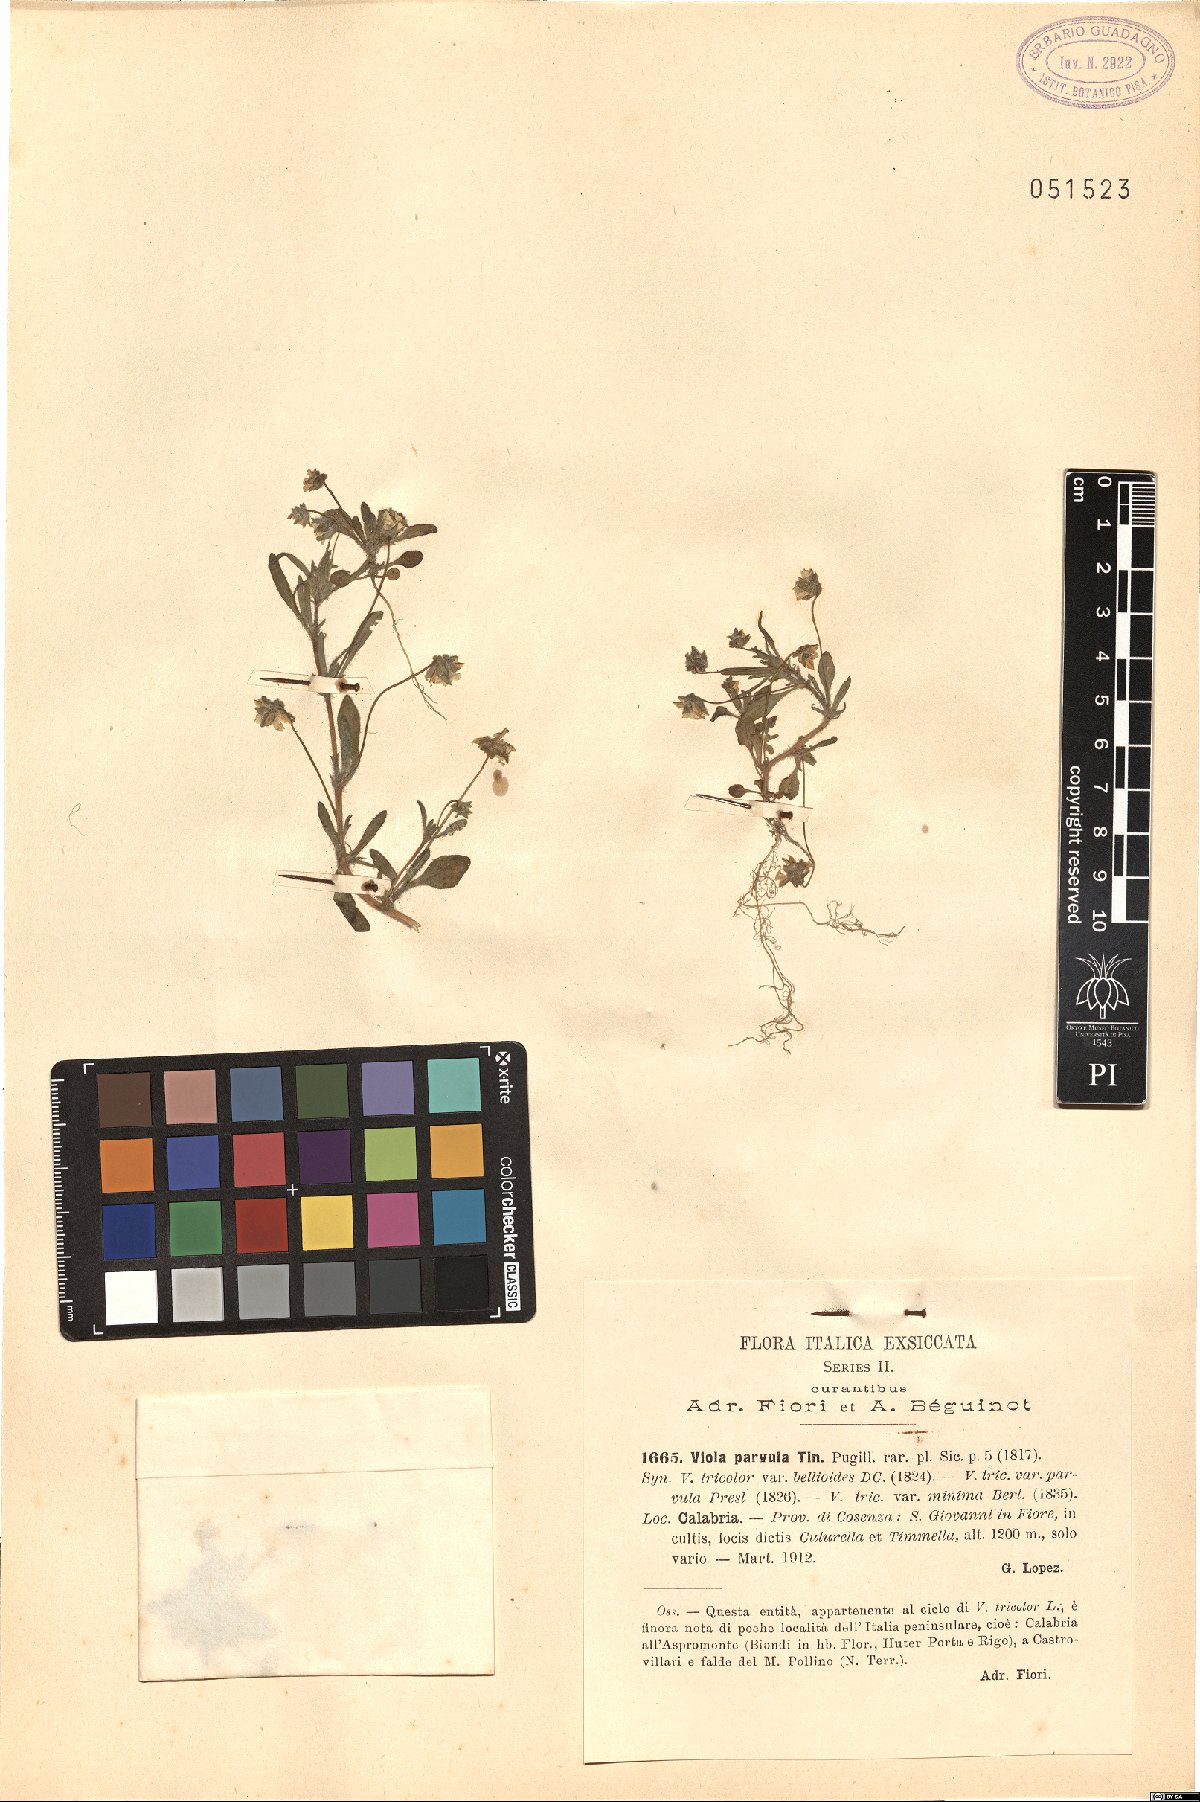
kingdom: Plantae
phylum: Tracheophyta
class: Magnoliopsida
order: Malpighiales
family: Violaceae
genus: Viola
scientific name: Viola parvula
